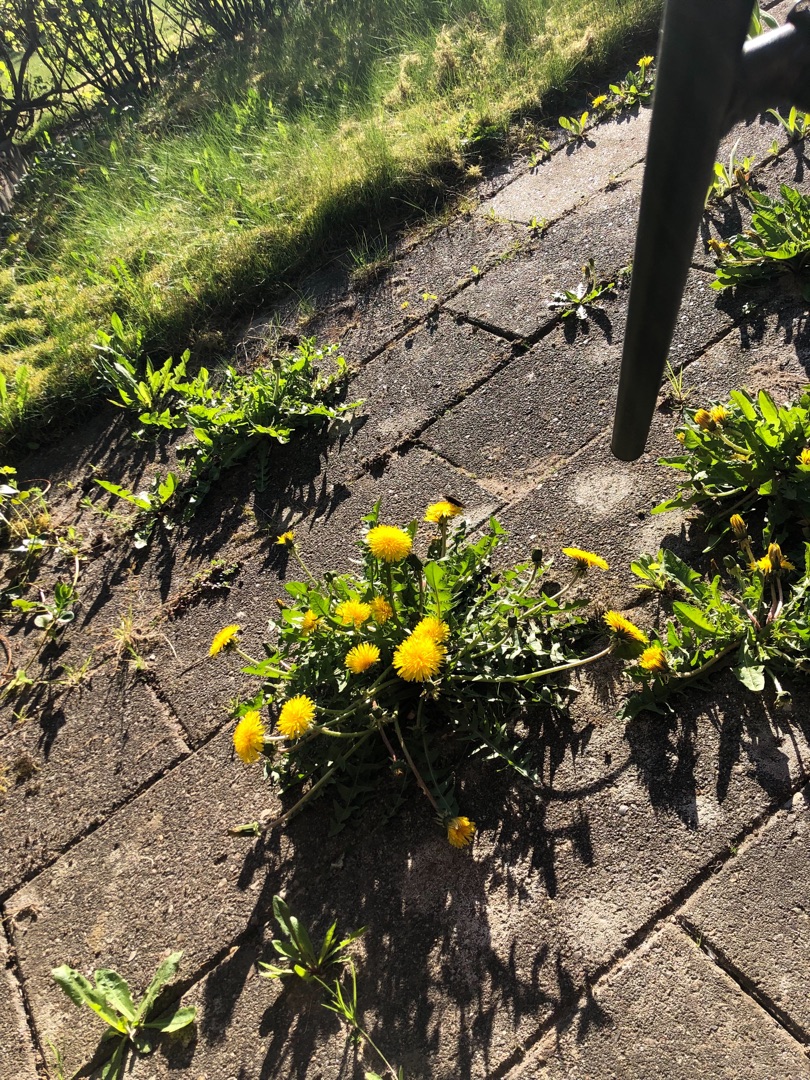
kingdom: Plantae
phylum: Tracheophyta
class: Magnoliopsida
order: Asterales
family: Asteraceae
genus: Taraxacum
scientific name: Taraxacum
